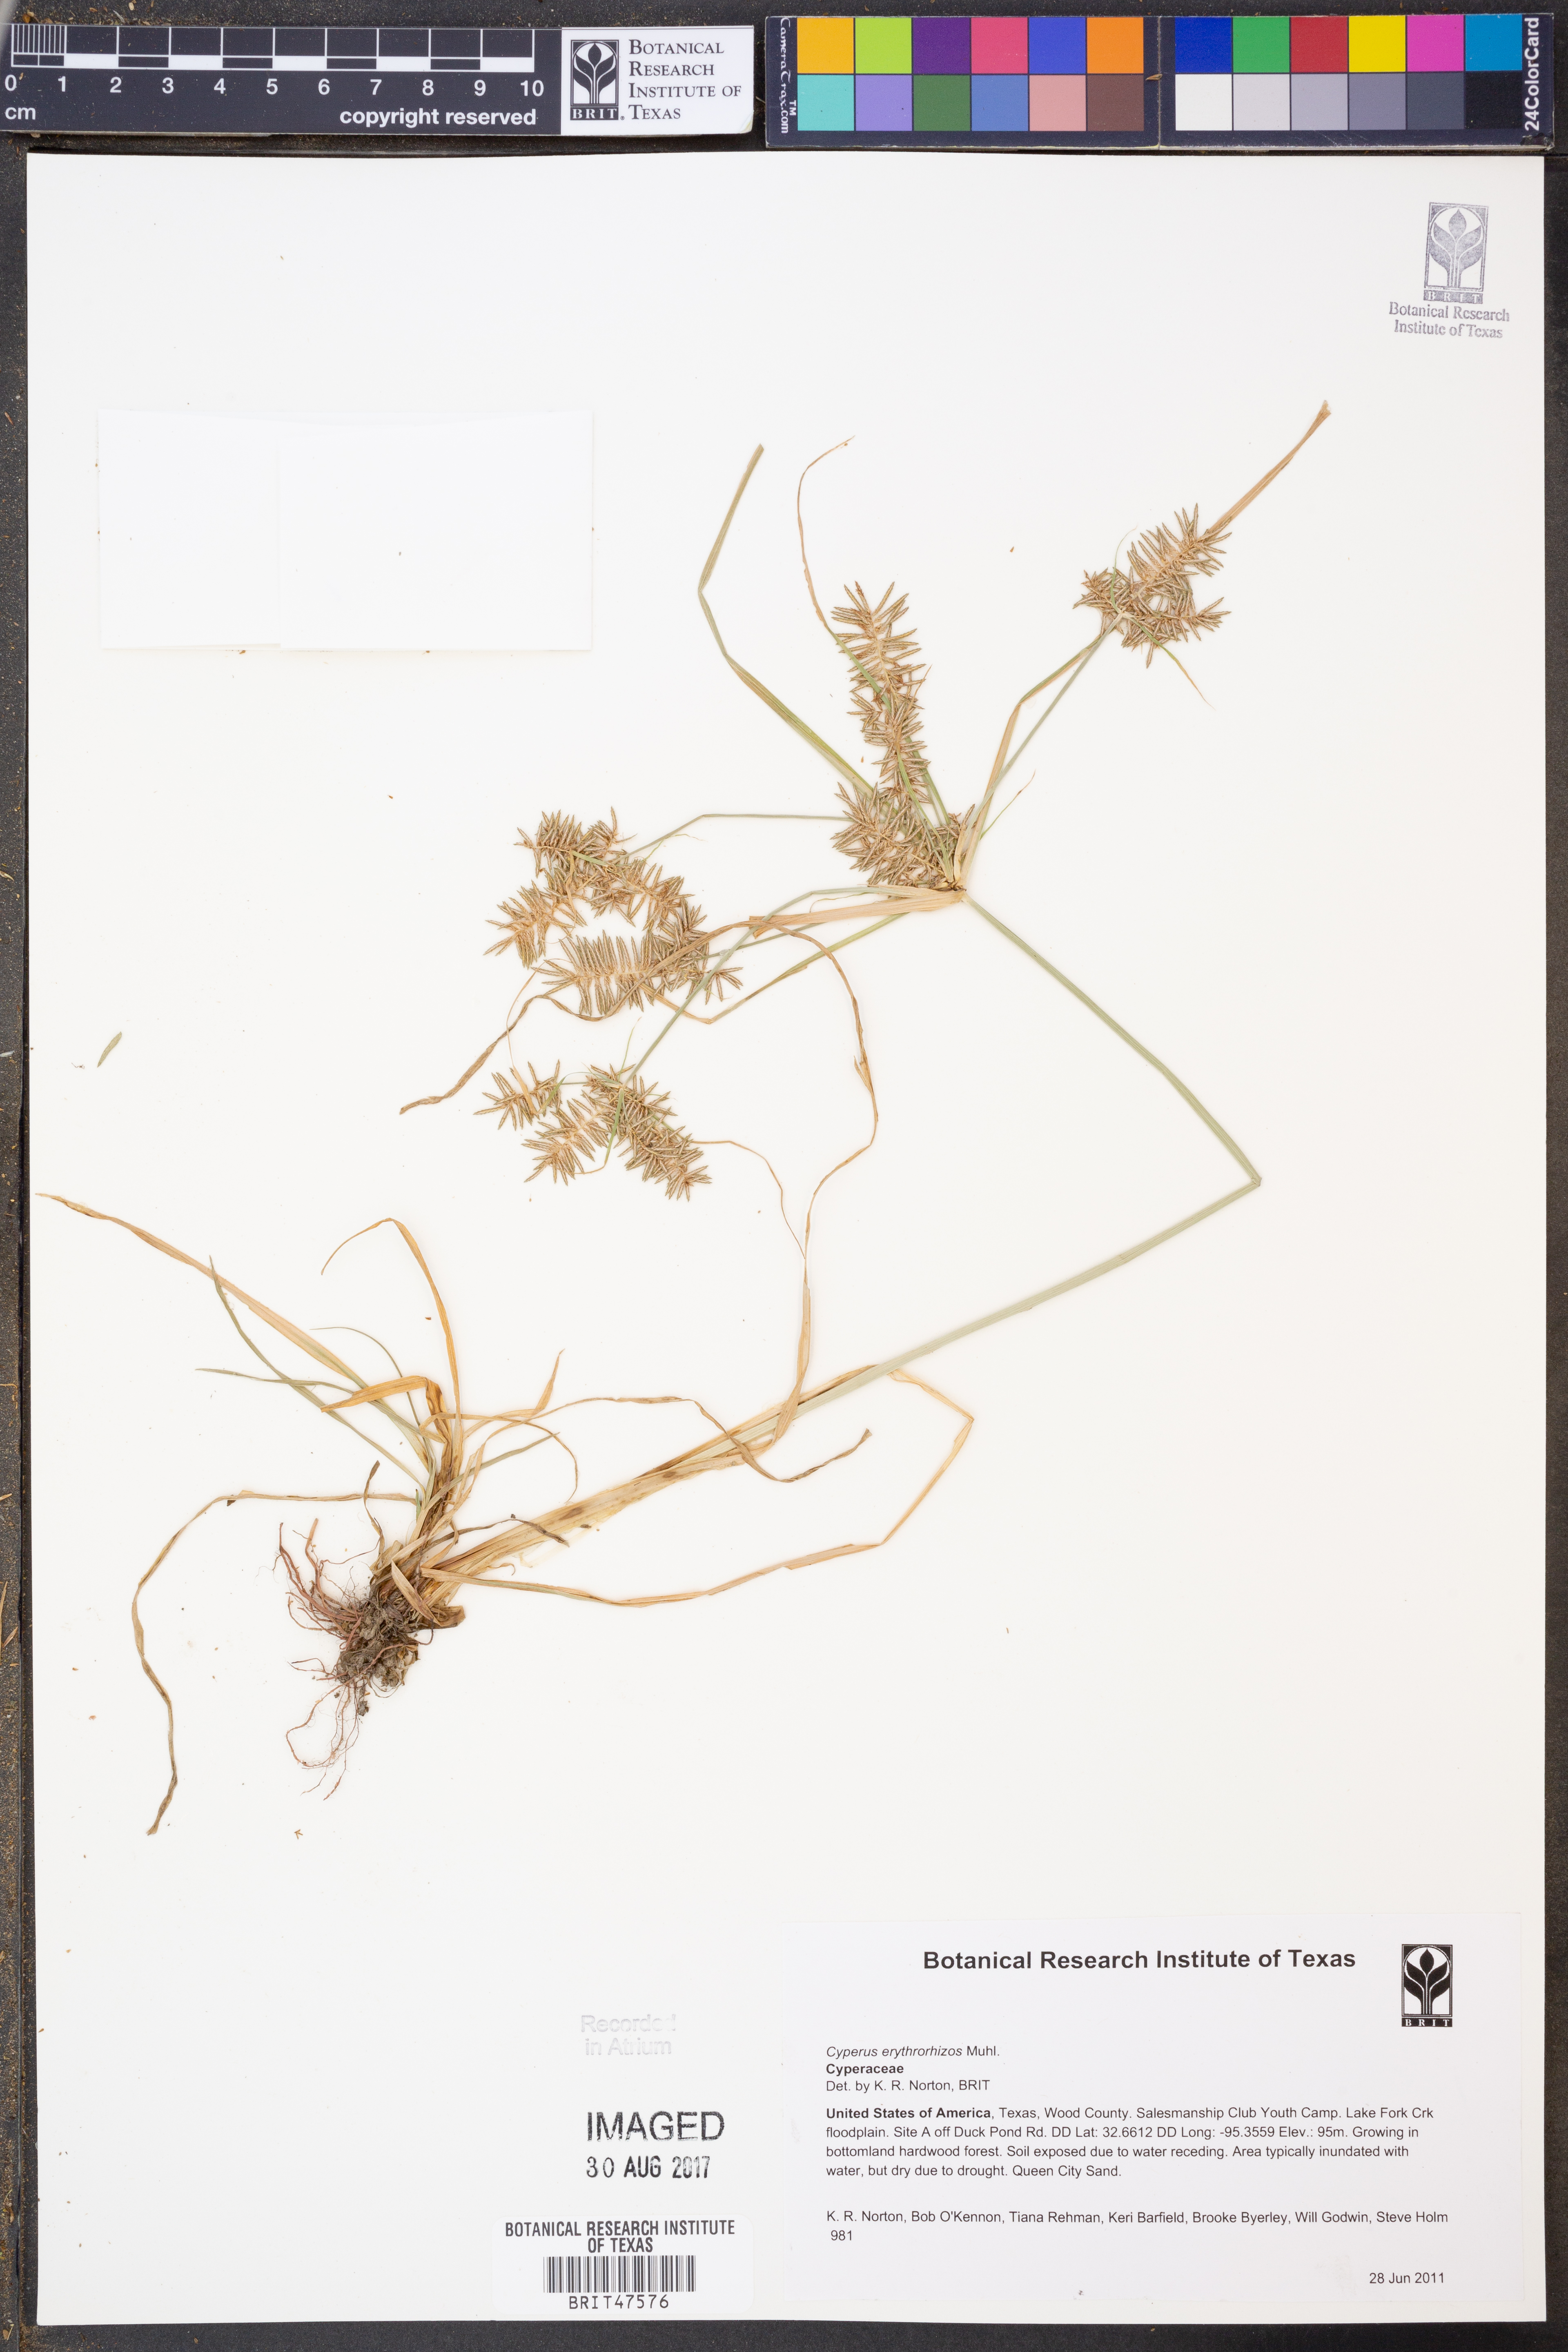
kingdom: Plantae
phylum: Tracheophyta
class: Liliopsida
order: Poales
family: Cyperaceae
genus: Cyperus
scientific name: Cyperus erythrorhizos
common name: Red-root flat sedge
